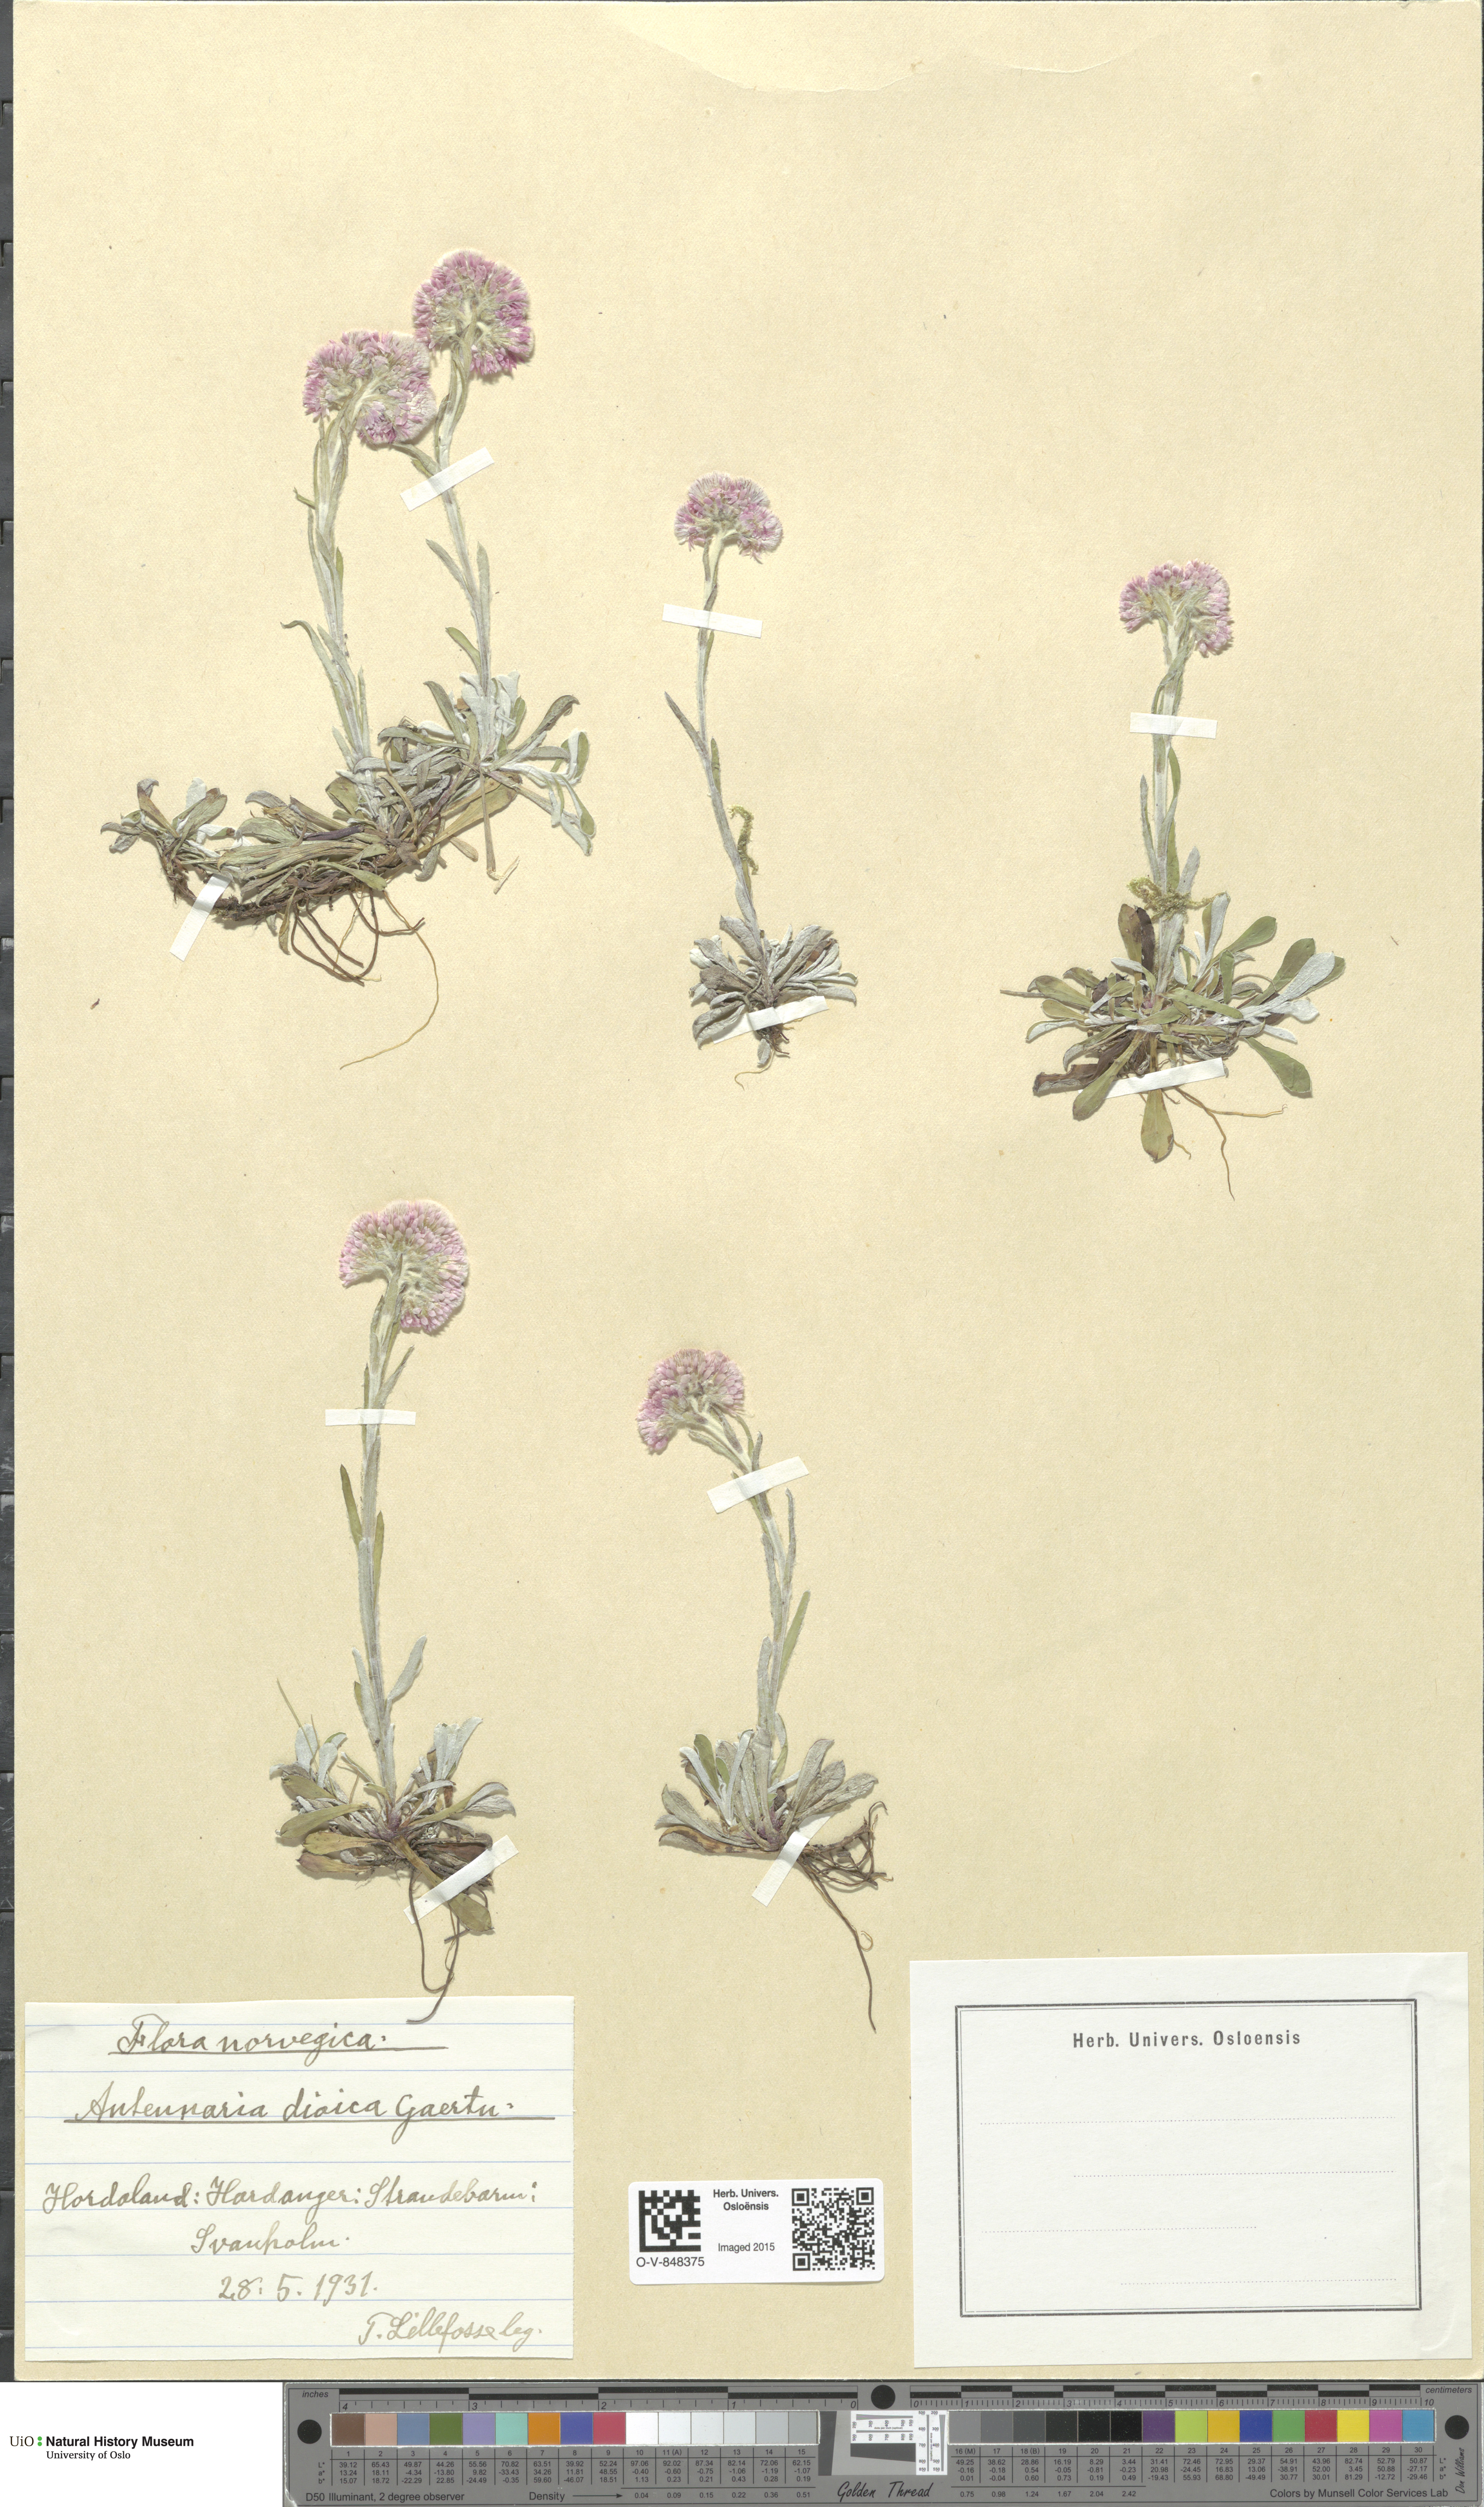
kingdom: Plantae
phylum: Tracheophyta
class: Magnoliopsida
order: Asterales
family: Asteraceae
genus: Antennaria
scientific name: Antennaria dioica
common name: Mountain everlasting
